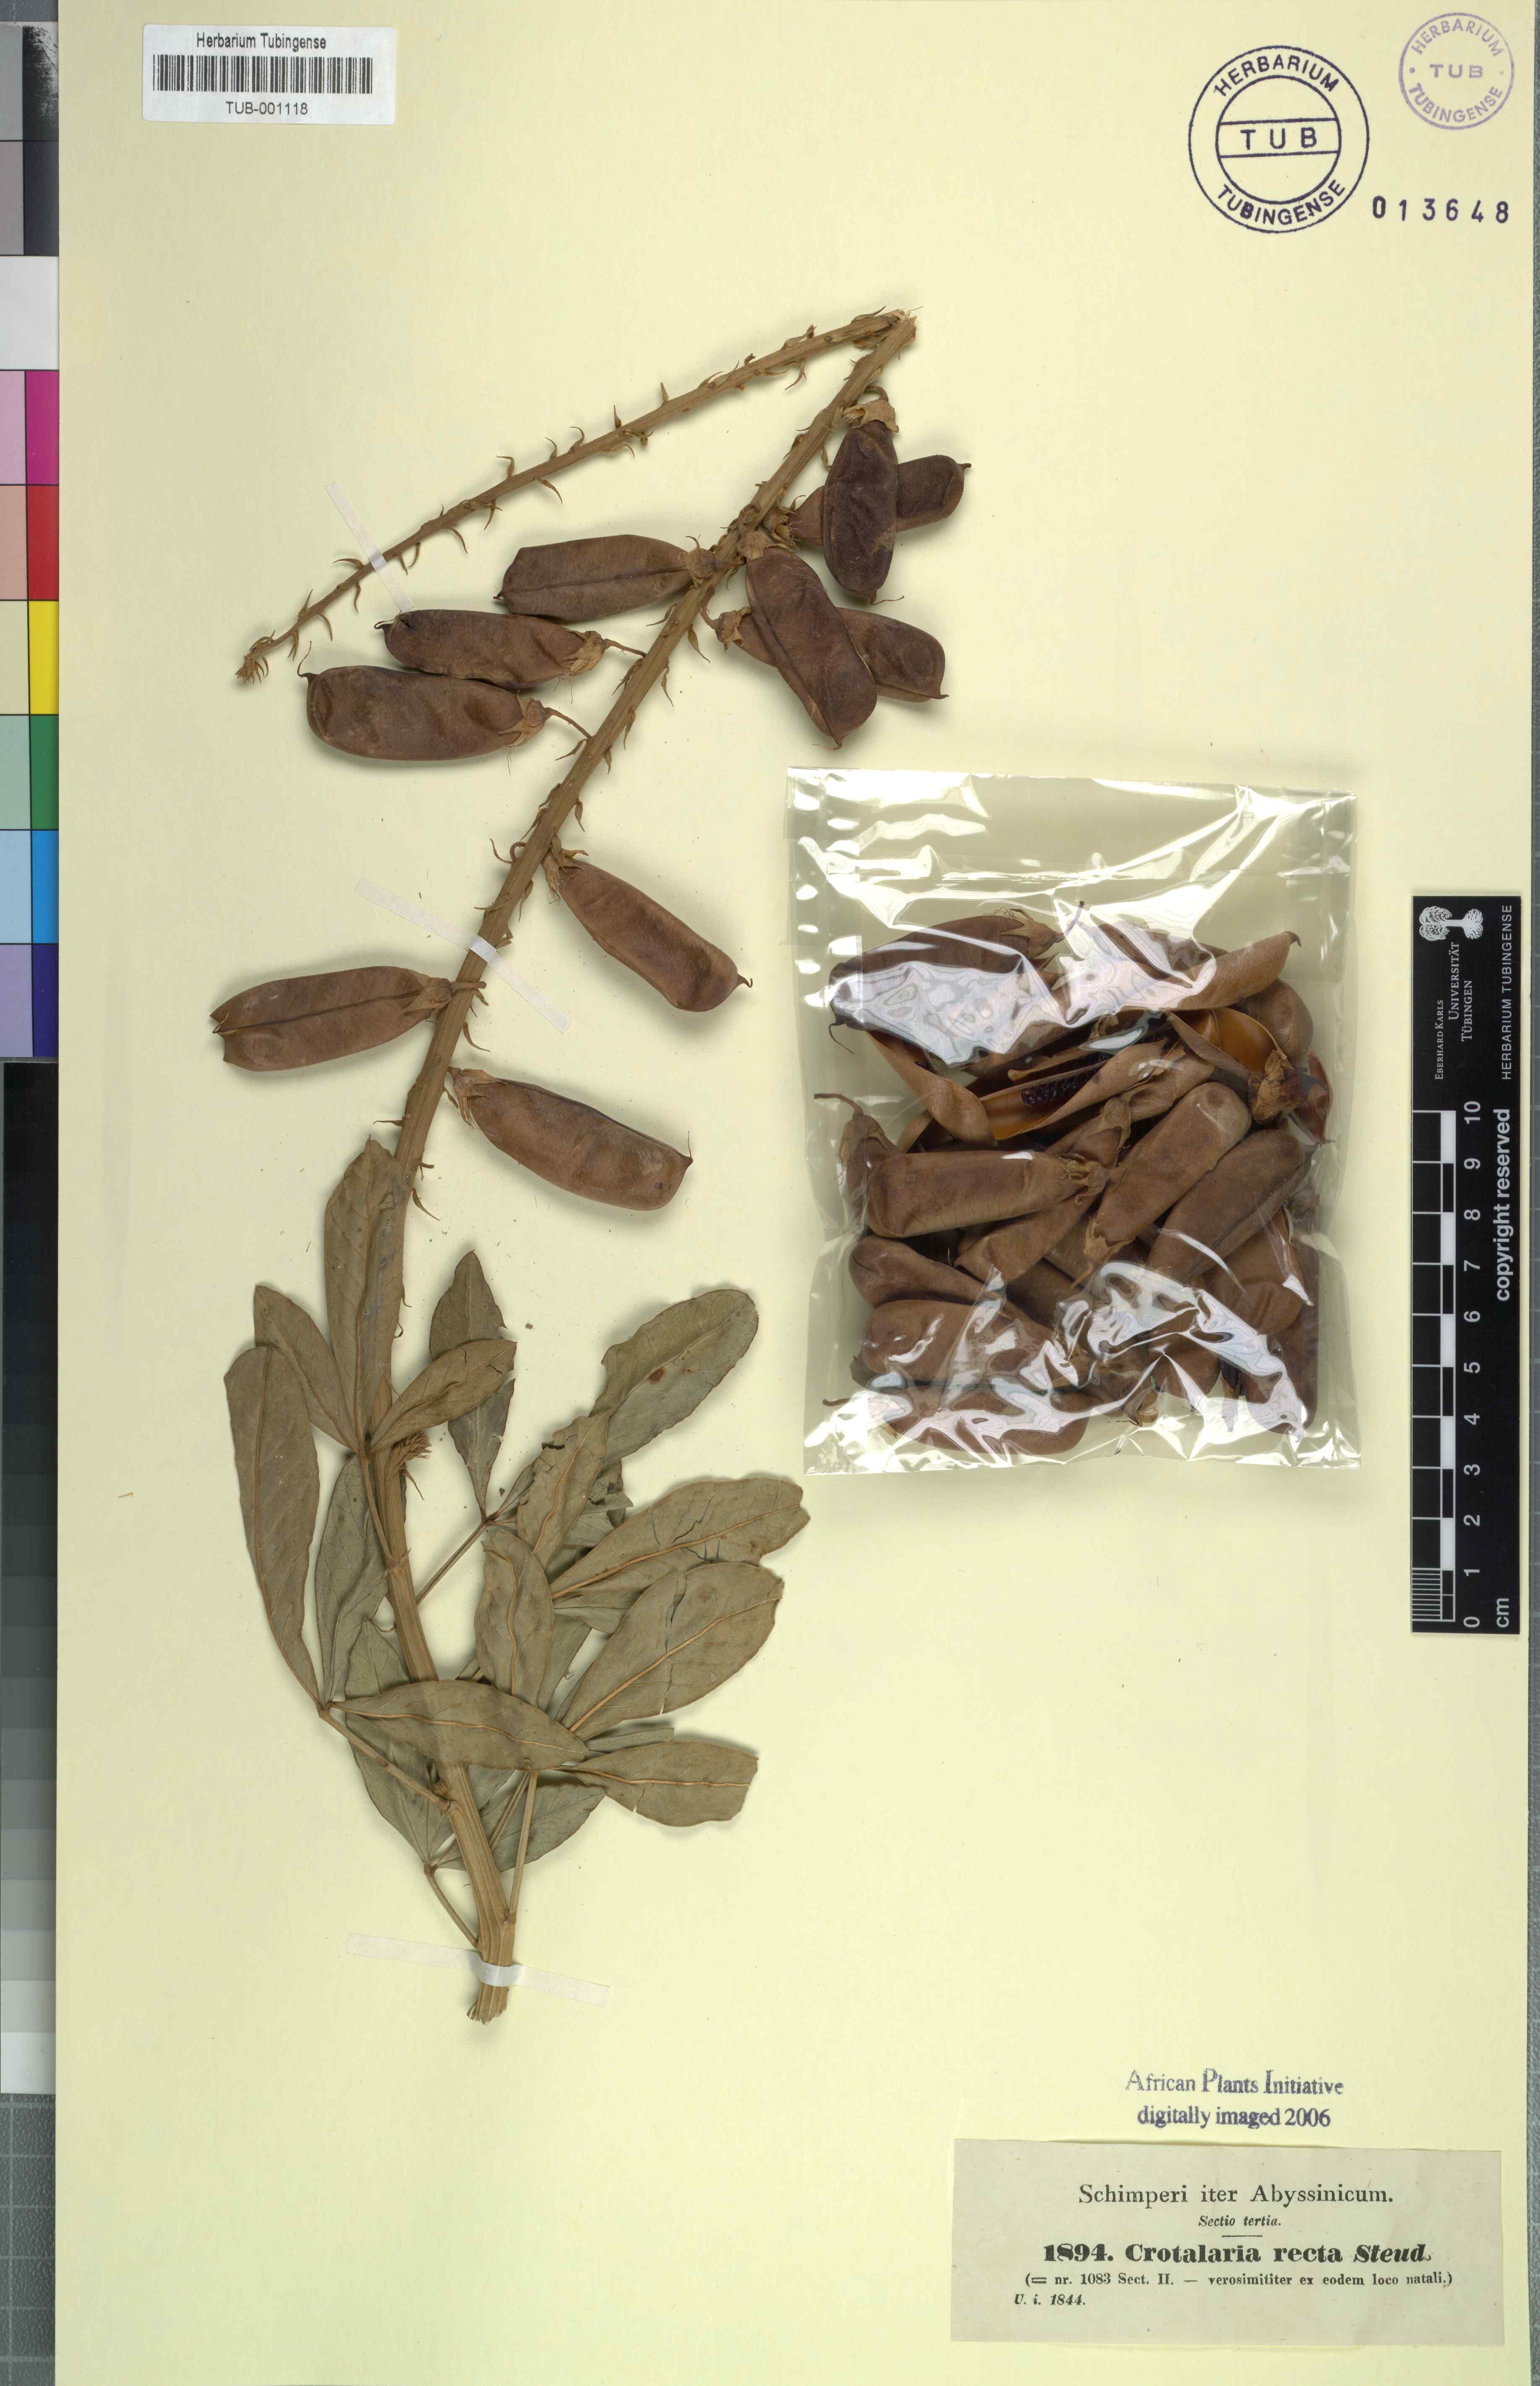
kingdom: Plantae
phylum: Tracheophyta
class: Magnoliopsida
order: Fabales
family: Fabaceae
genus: Crotalaria
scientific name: Crotalaria recta
